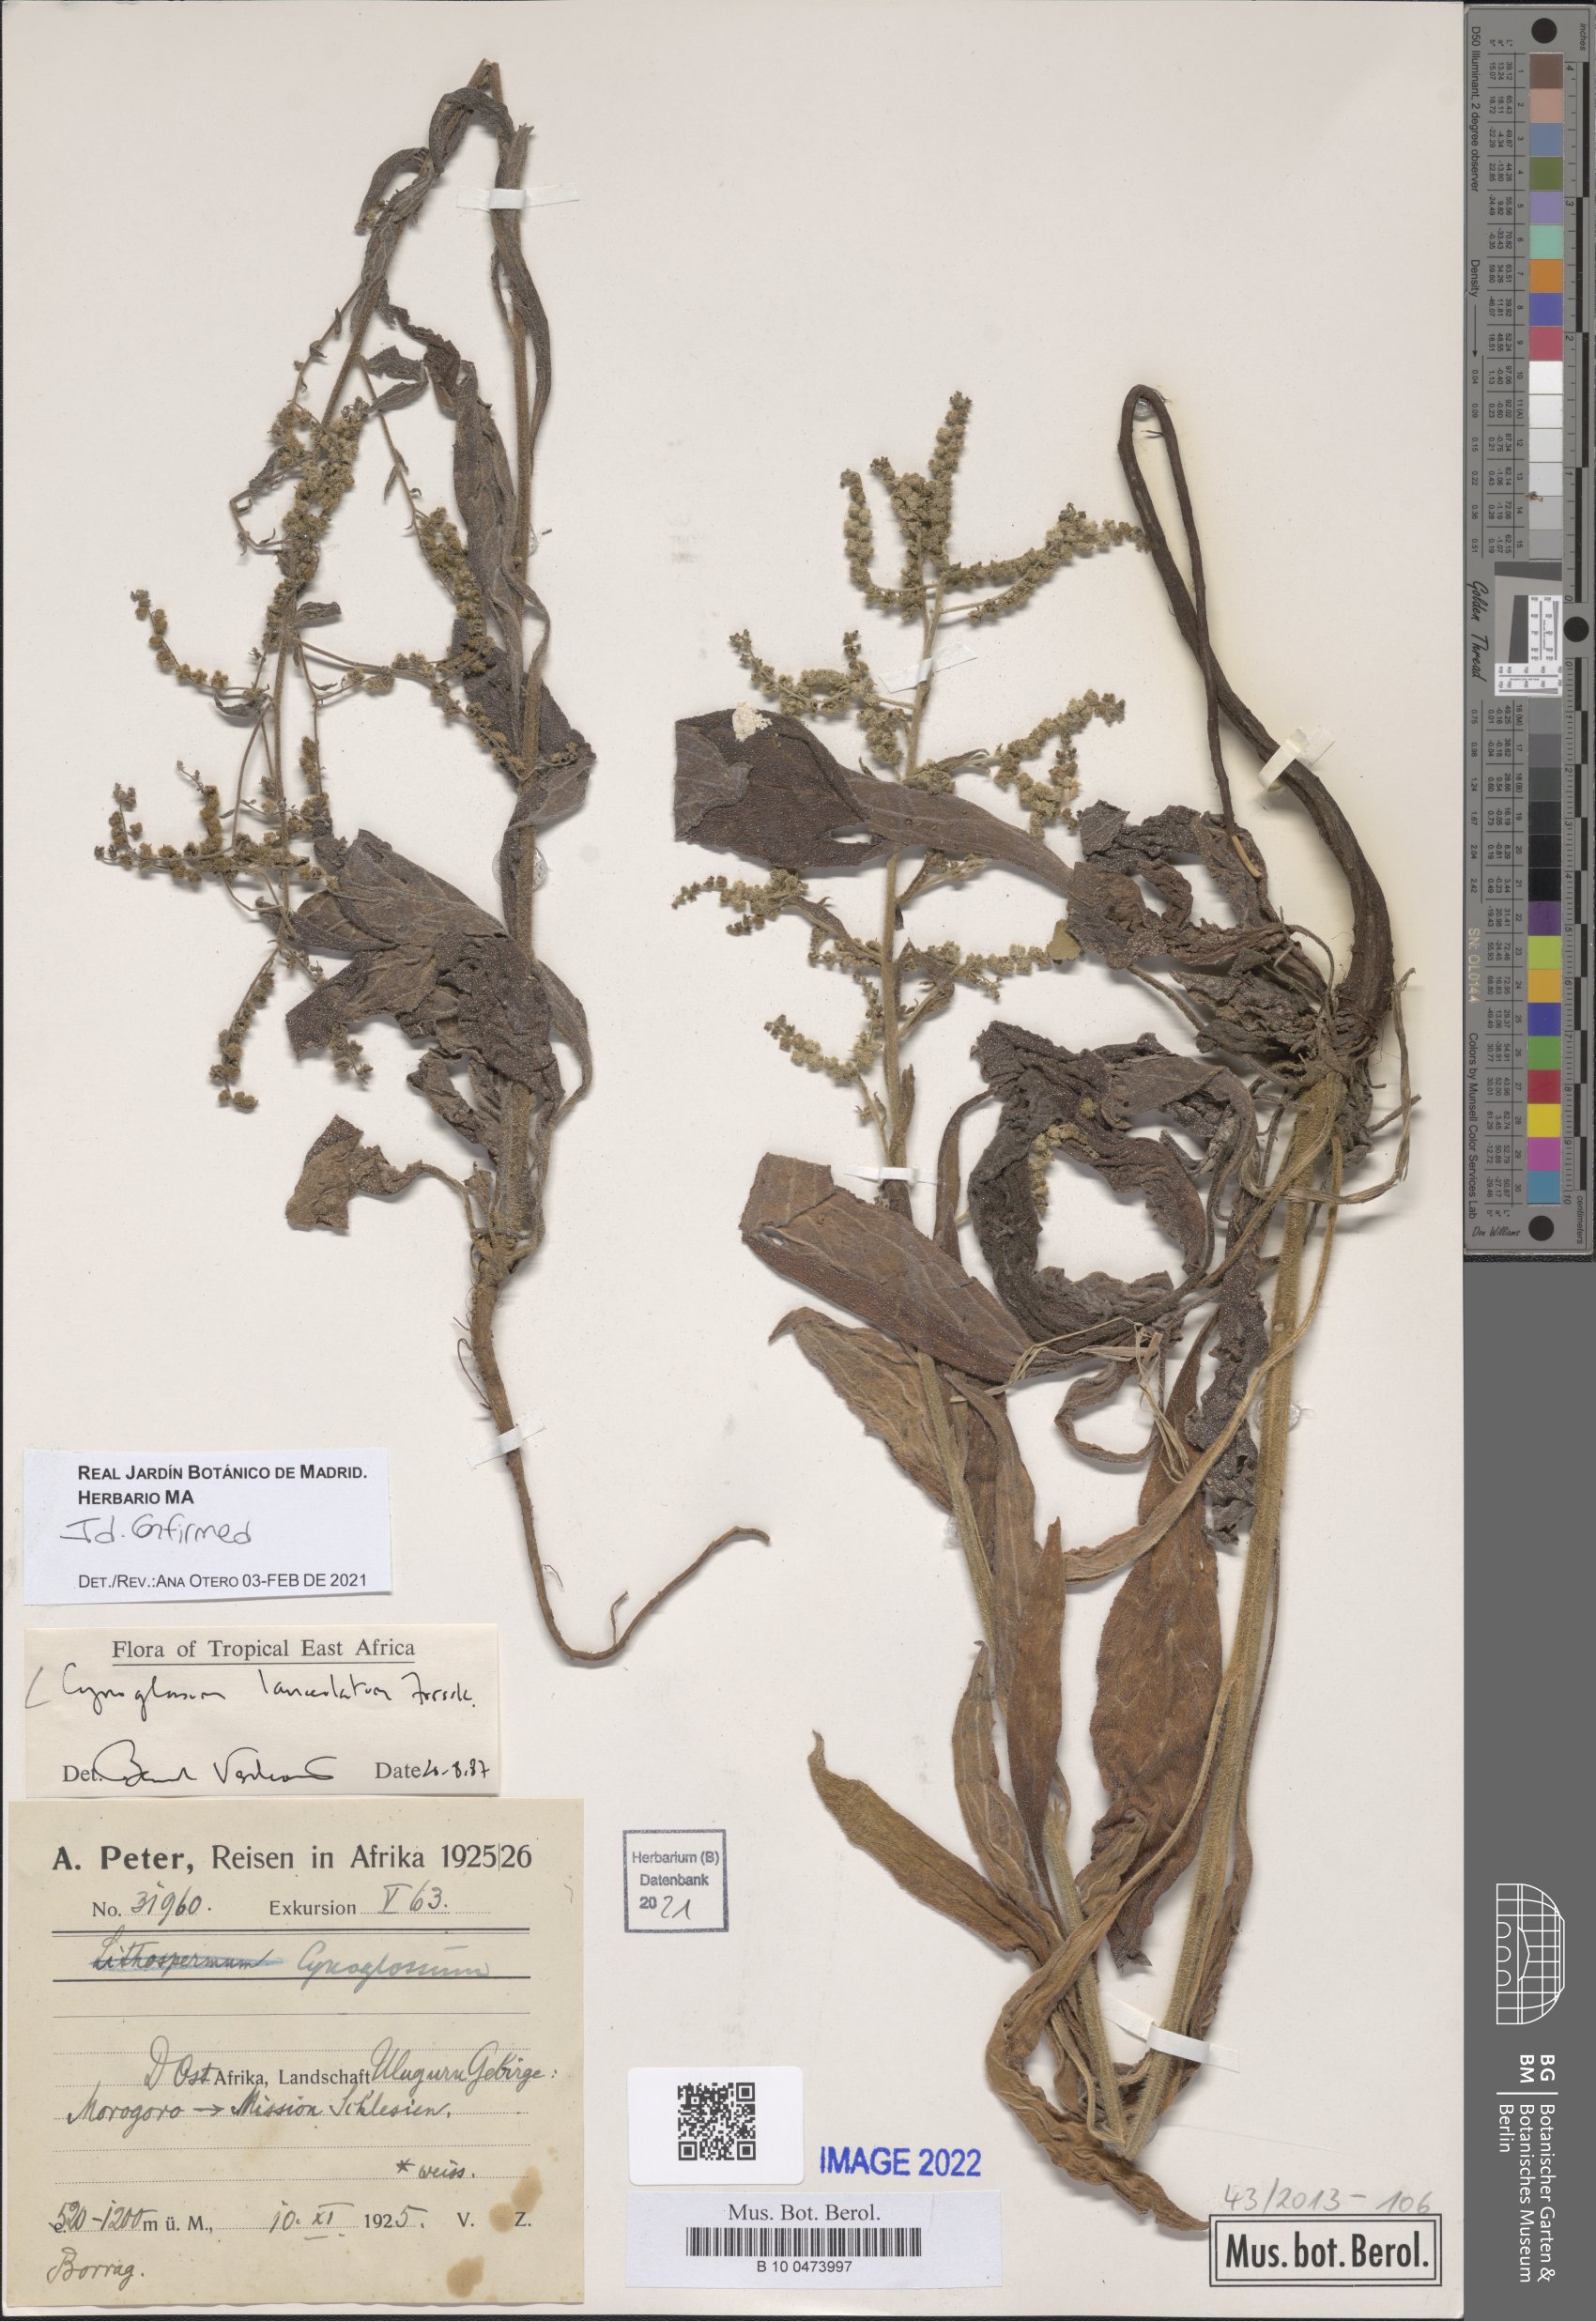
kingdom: Plantae
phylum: Tracheophyta
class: Magnoliopsida
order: Boraginales
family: Boraginaceae
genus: Paracynoglossum
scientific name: Paracynoglossum lanceolatum
